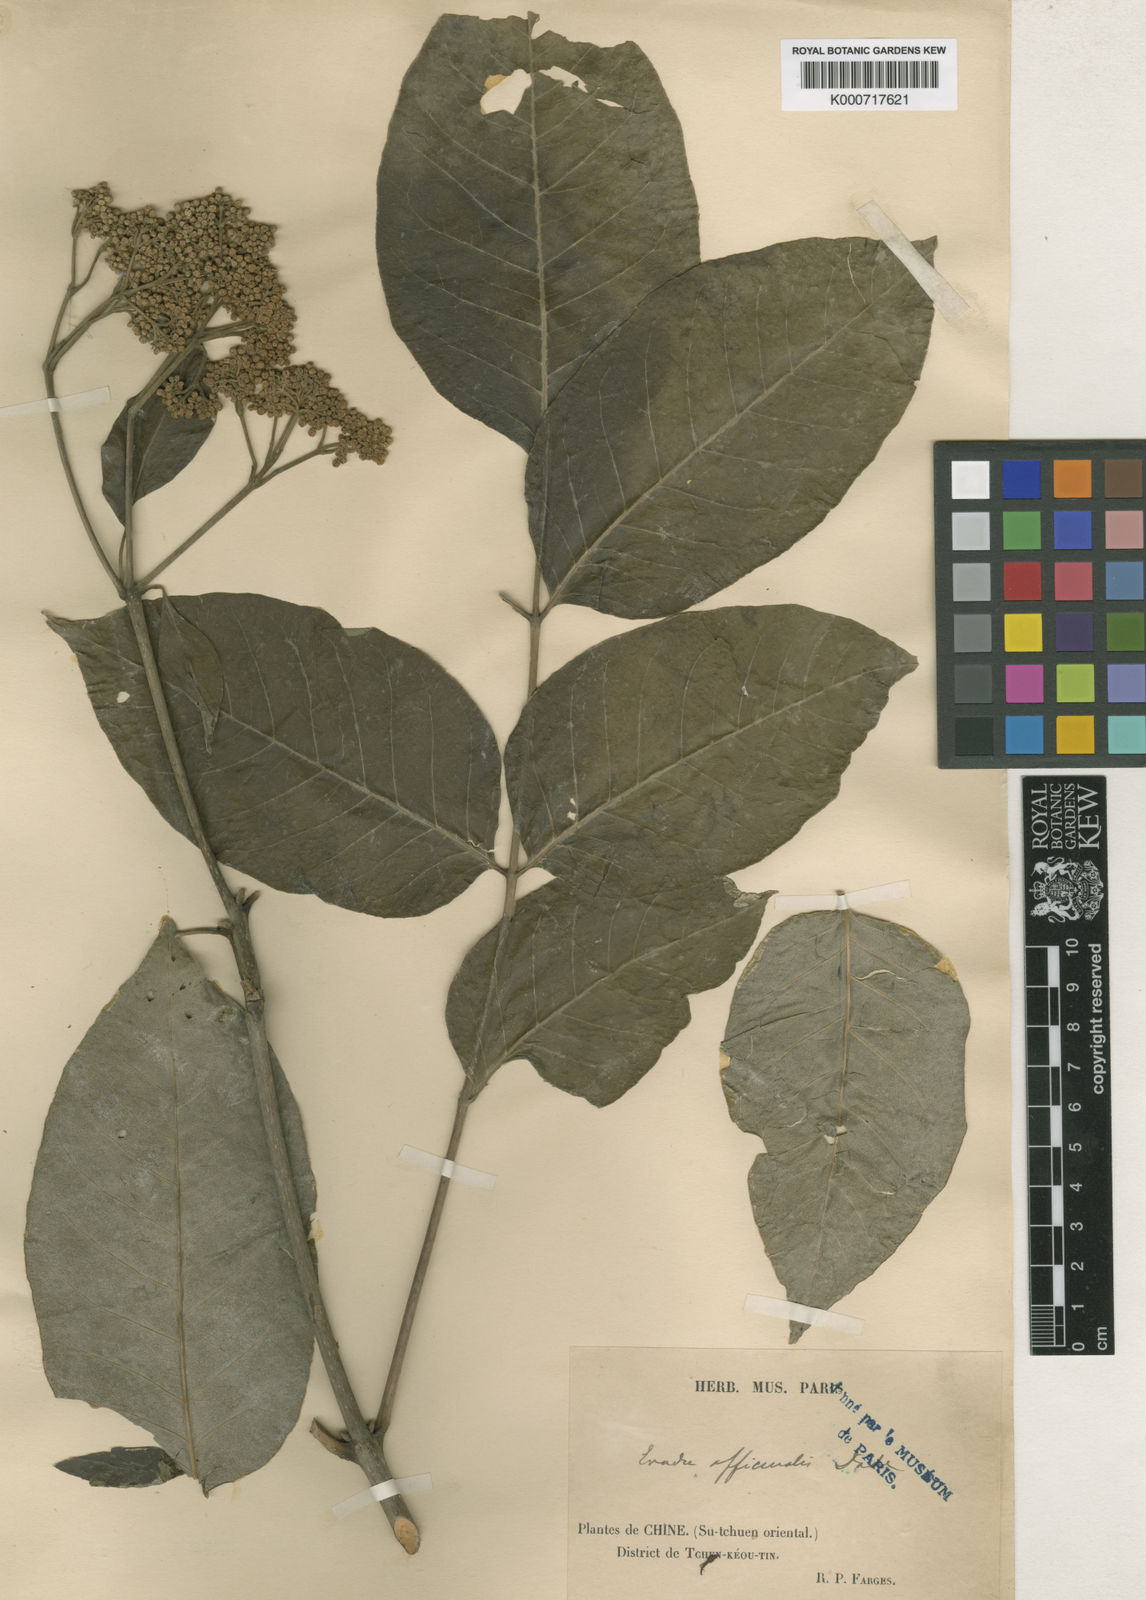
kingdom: Plantae
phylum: Tracheophyta
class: Magnoliopsida
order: Sapindales
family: Rutaceae
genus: Tetradium
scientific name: Tetradium ruticarpum
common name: Evodia
